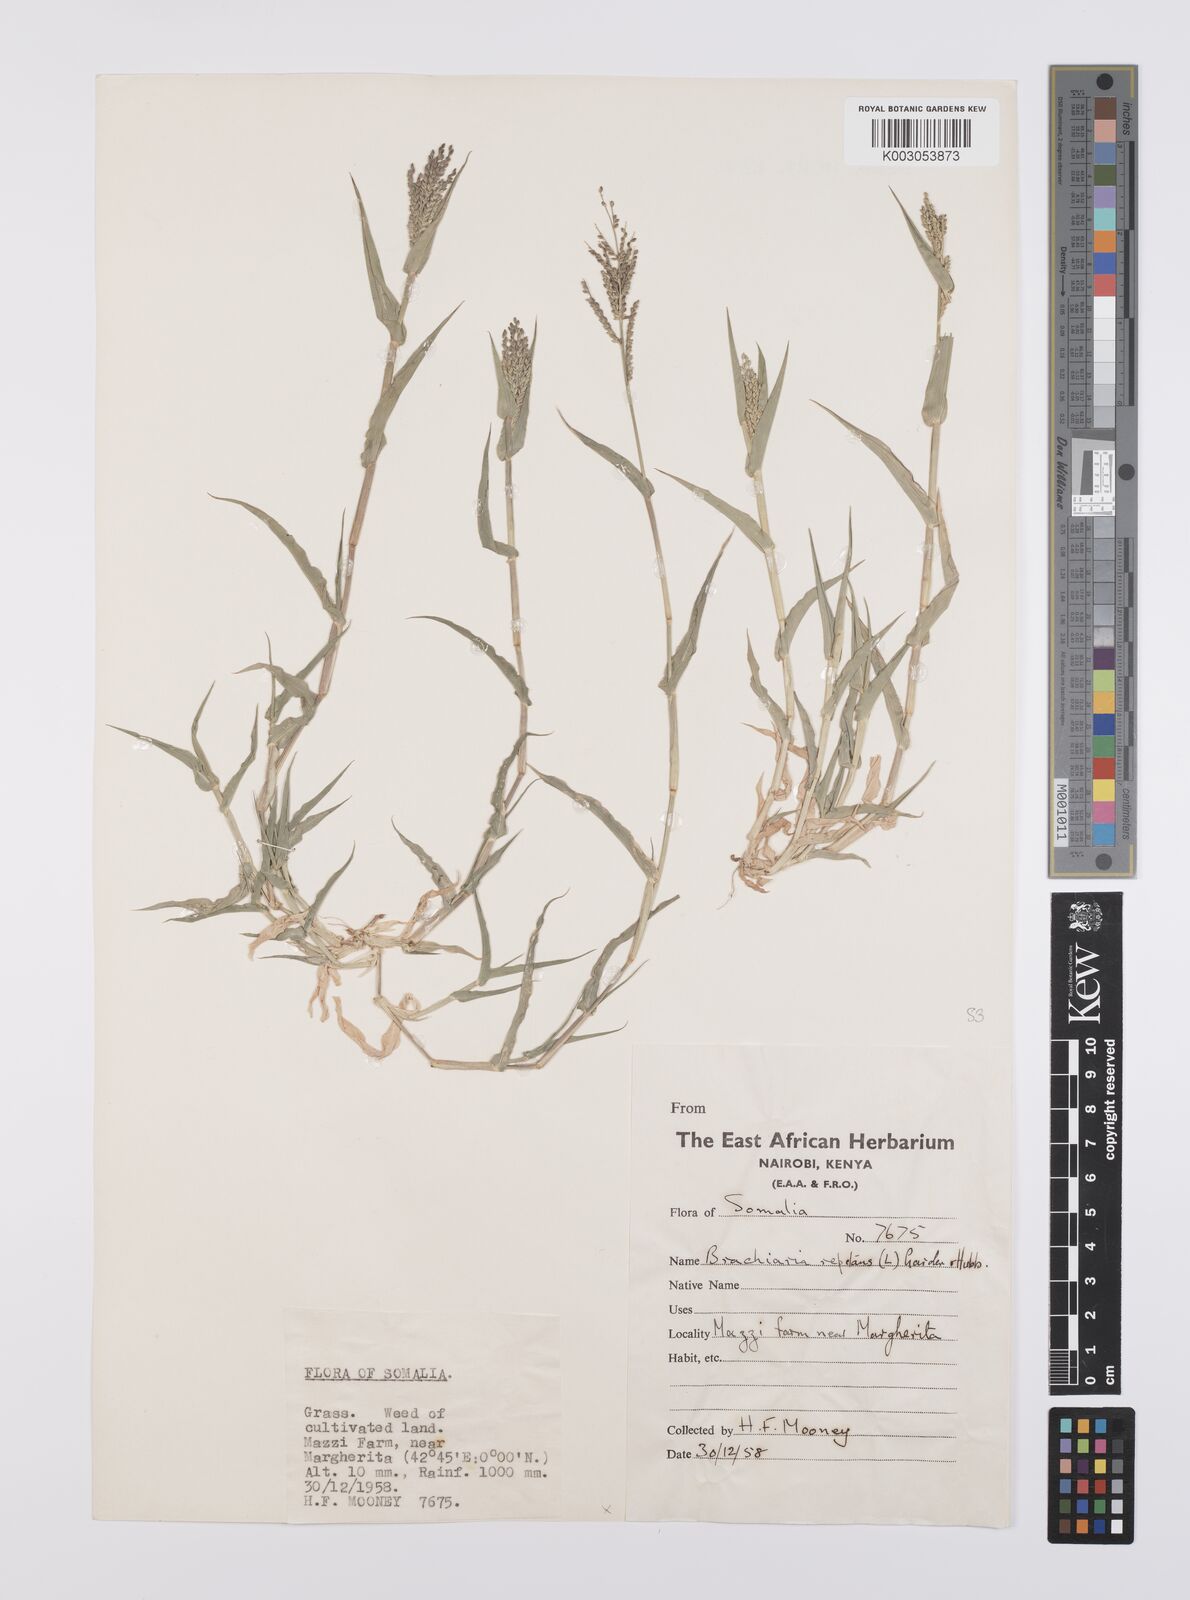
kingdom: Plantae
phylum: Tracheophyta
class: Liliopsida
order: Poales
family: Poaceae
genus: Urochloa
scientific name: Urochloa reptans
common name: Sprawling signalgrass
